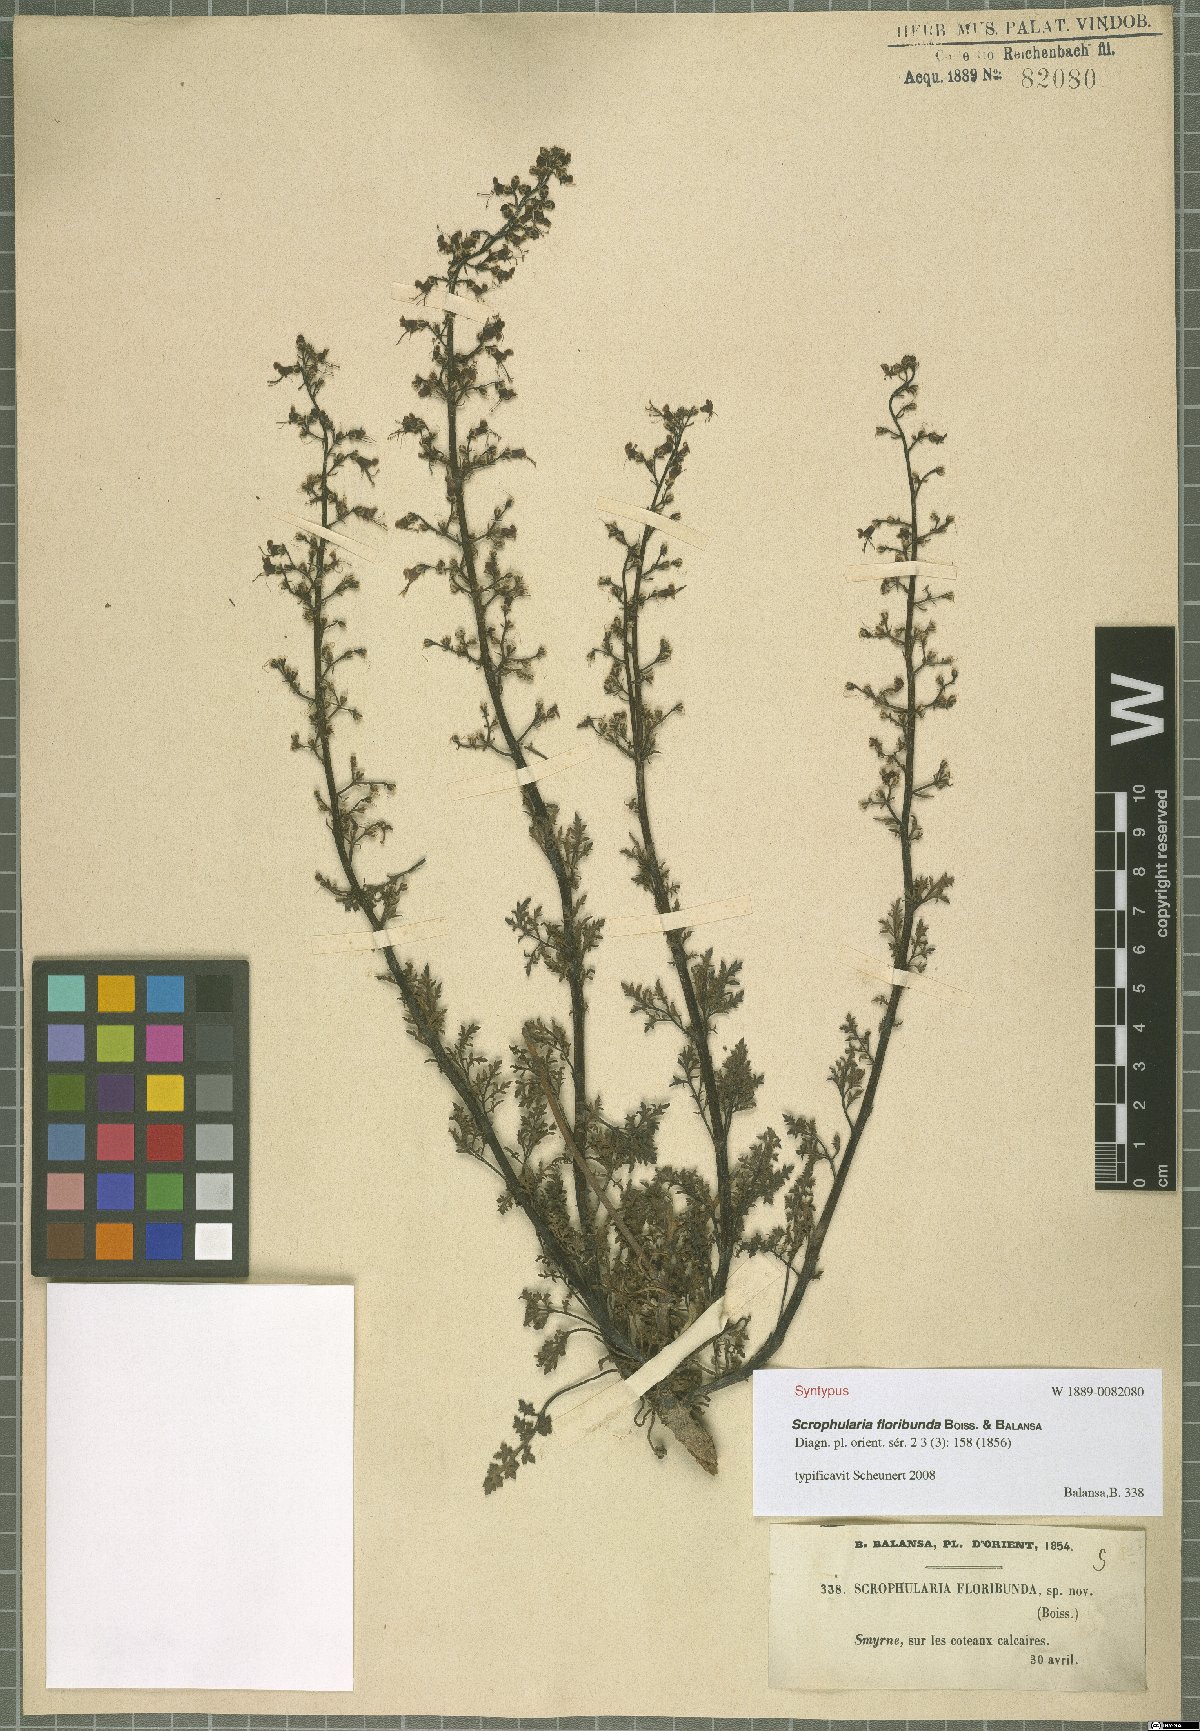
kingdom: Plantae
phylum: Tracheophyta
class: Magnoliopsida
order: Lamiales
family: Scrophulariaceae
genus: Scrophularia
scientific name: Scrophularia floribunda
